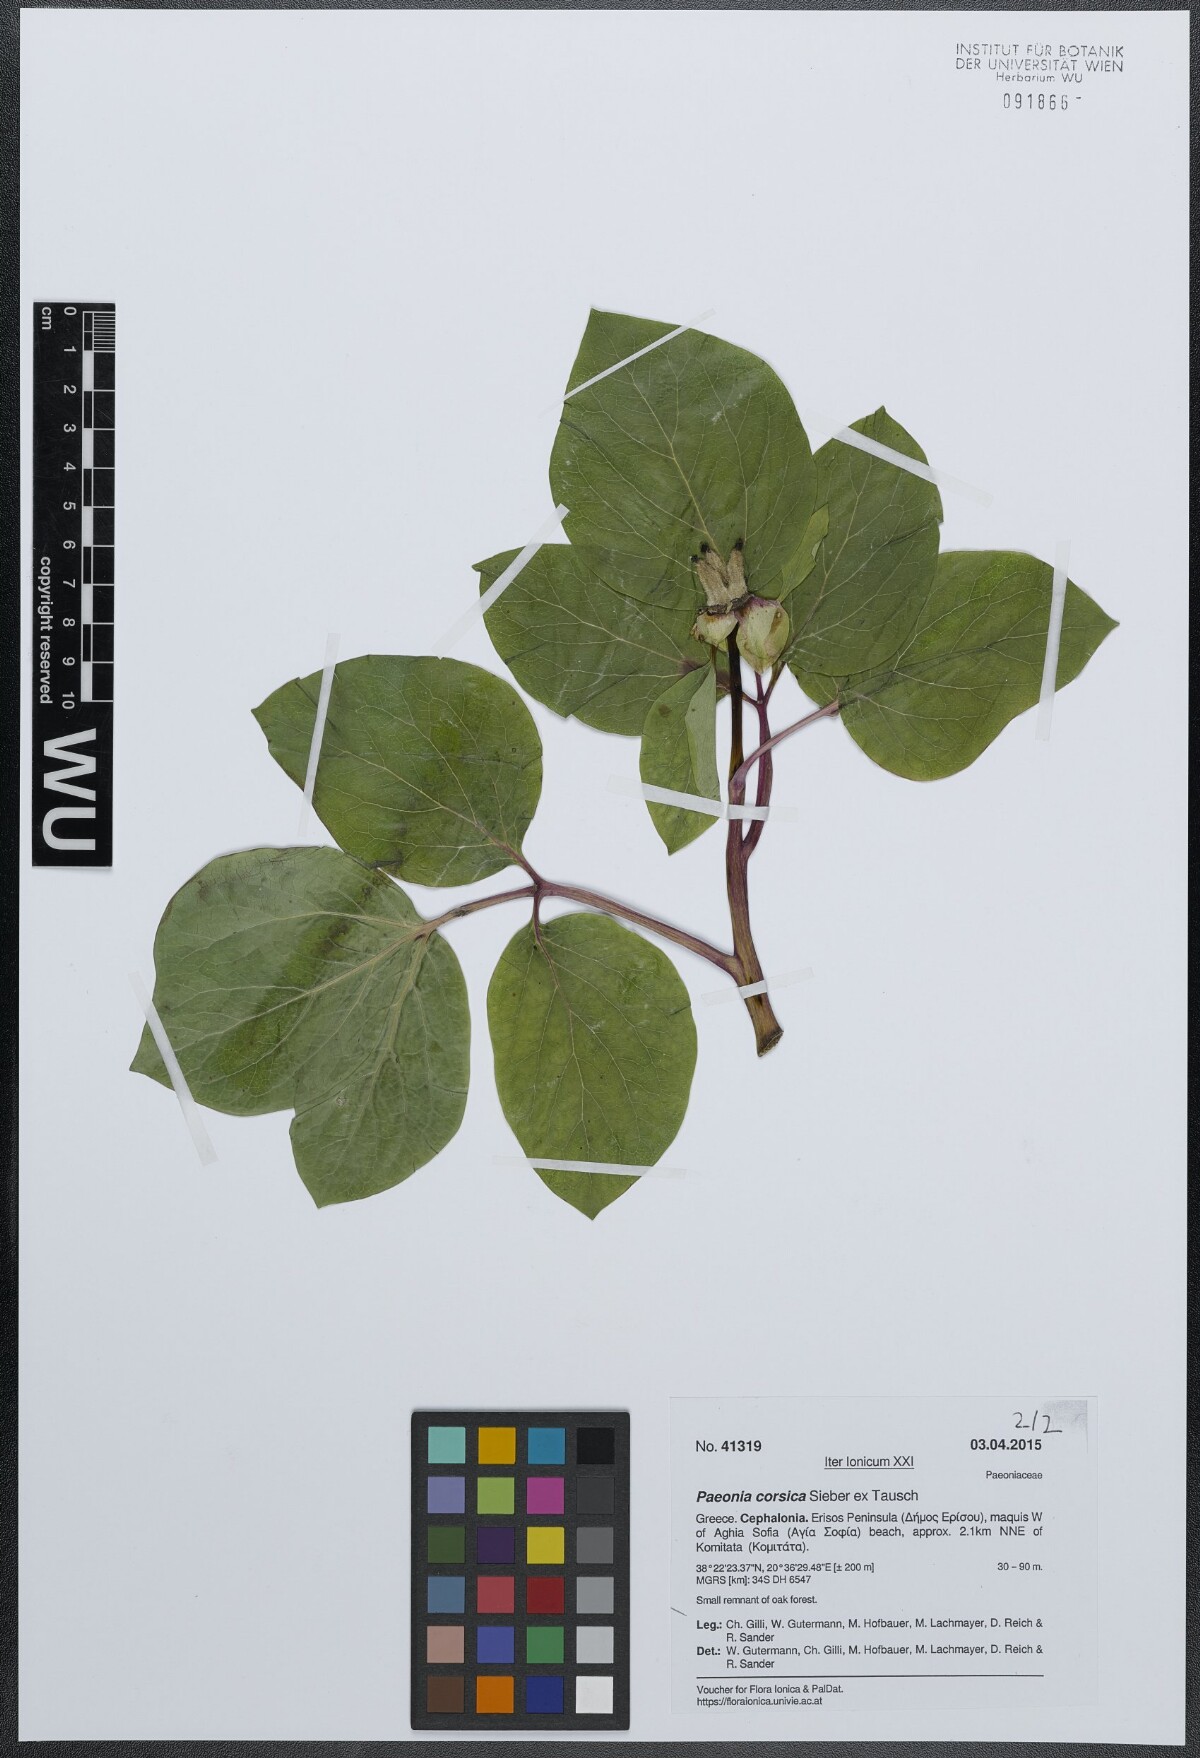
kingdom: Plantae
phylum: Tracheophyta
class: Magnoliopsida
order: Saxifragales
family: Paeoniaceae
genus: Paeonia
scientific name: Paeonia corsica
